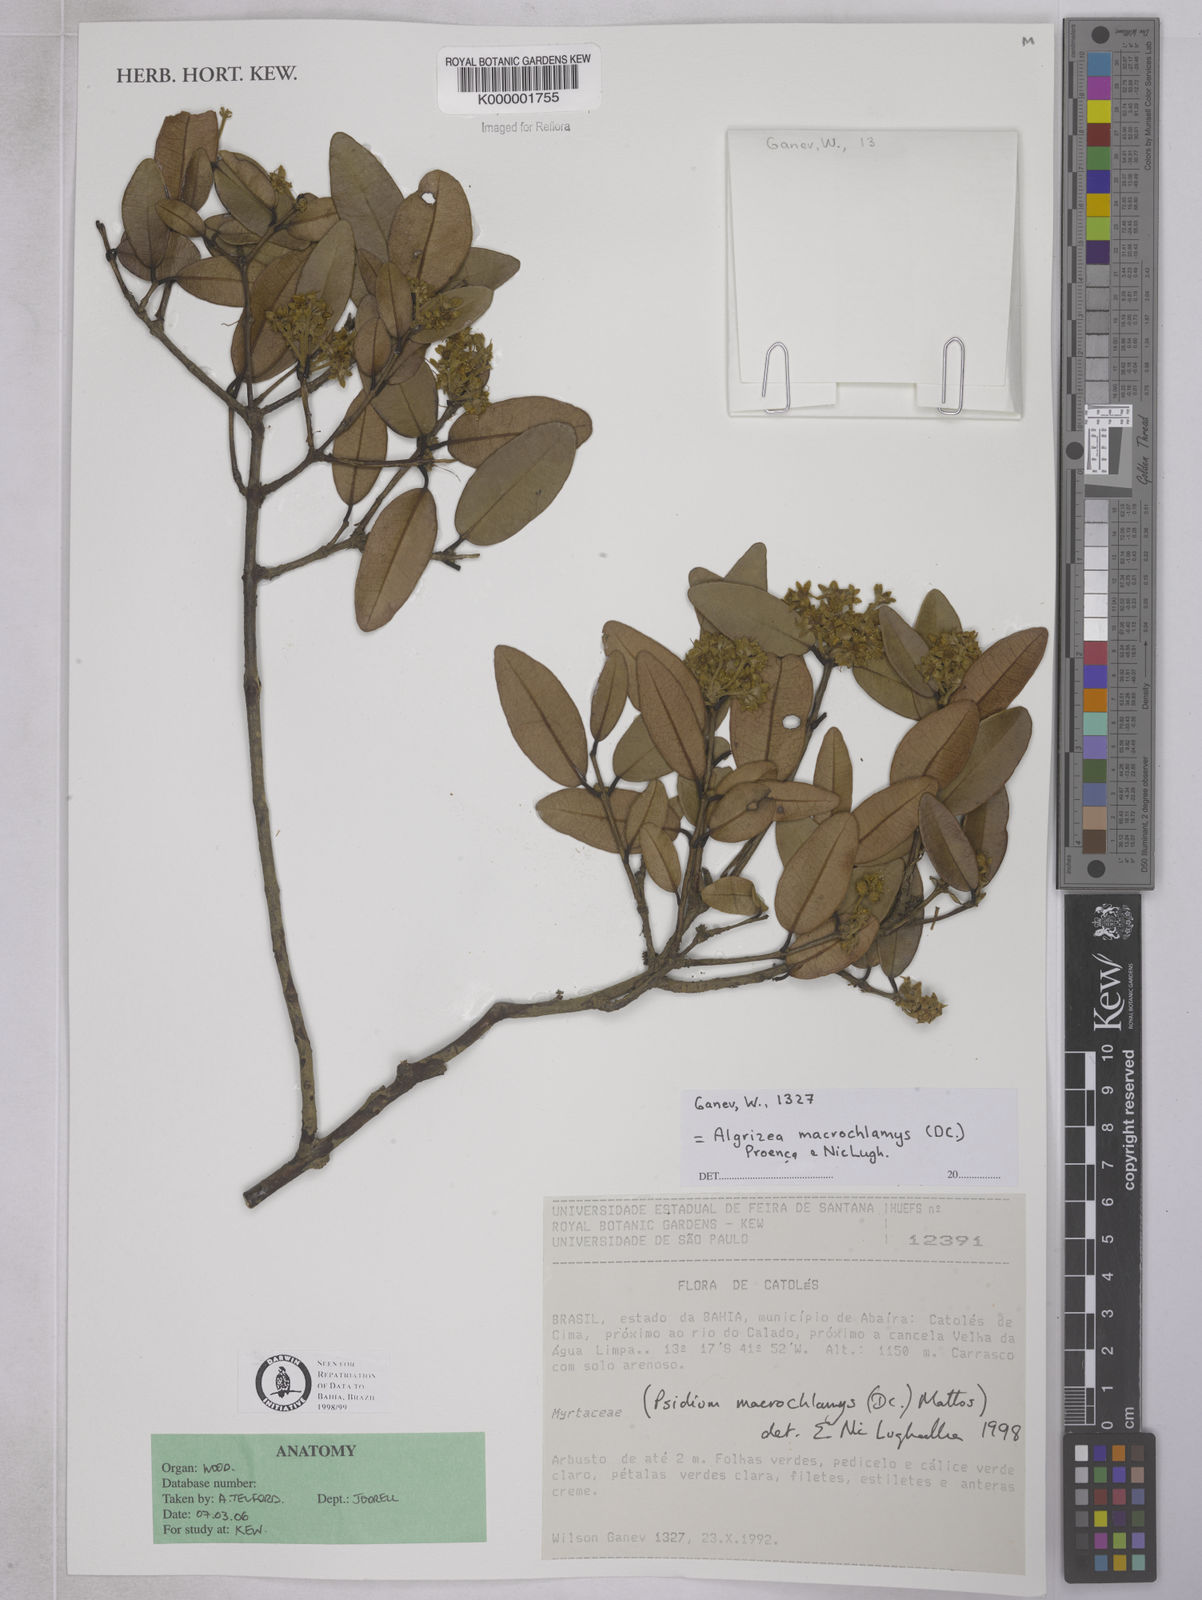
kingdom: Plantae
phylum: Tracheophyta
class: Magnoliopsida
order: Myrtales
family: Myrtaceae
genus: Algrizea
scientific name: Algrizea macrochlamys
